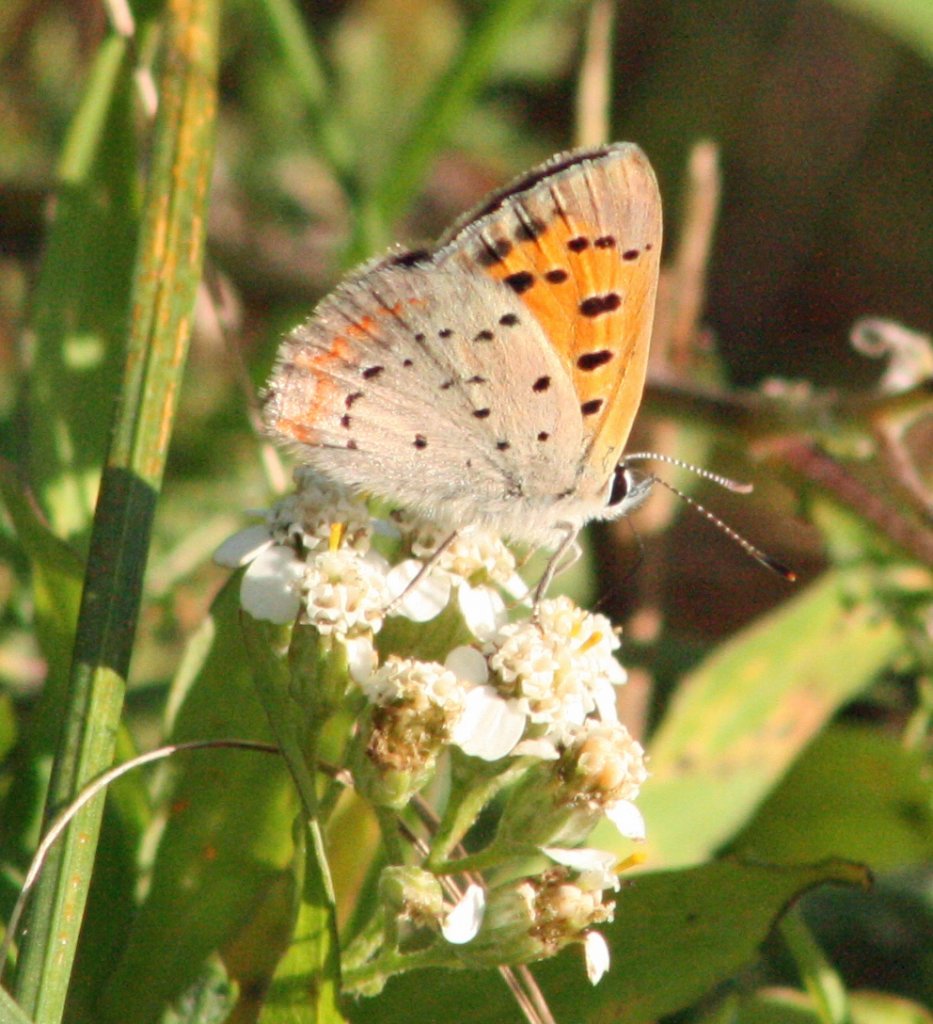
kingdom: Animalia
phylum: Arthropoda
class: Insecta
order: Lepidoptera
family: Lycaenidae
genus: Lycaena
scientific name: Lycaena phlaeas
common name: American Copper
